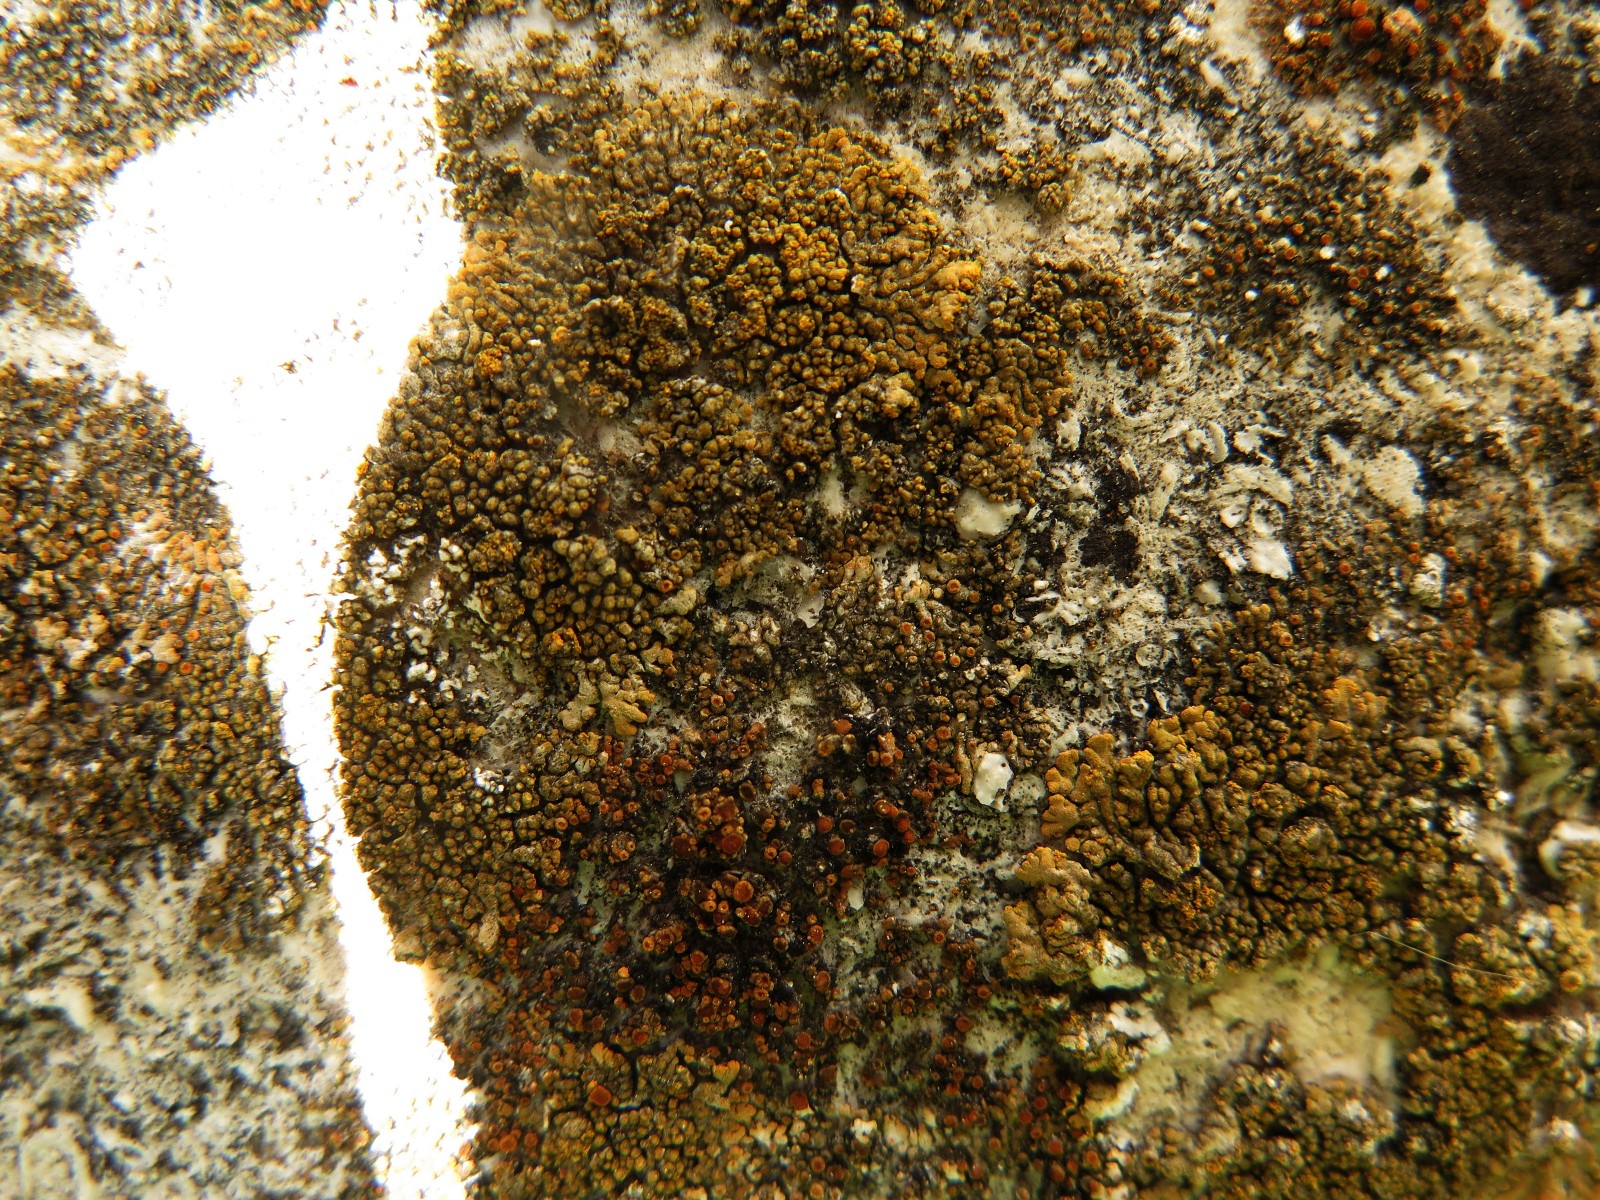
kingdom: Fungi
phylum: Ascomycota
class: Lecanoromycetes
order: Teloschistales
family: Teloschistaceae
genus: Calogaya
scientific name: Calogaya decipiens
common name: knudret orangelav
